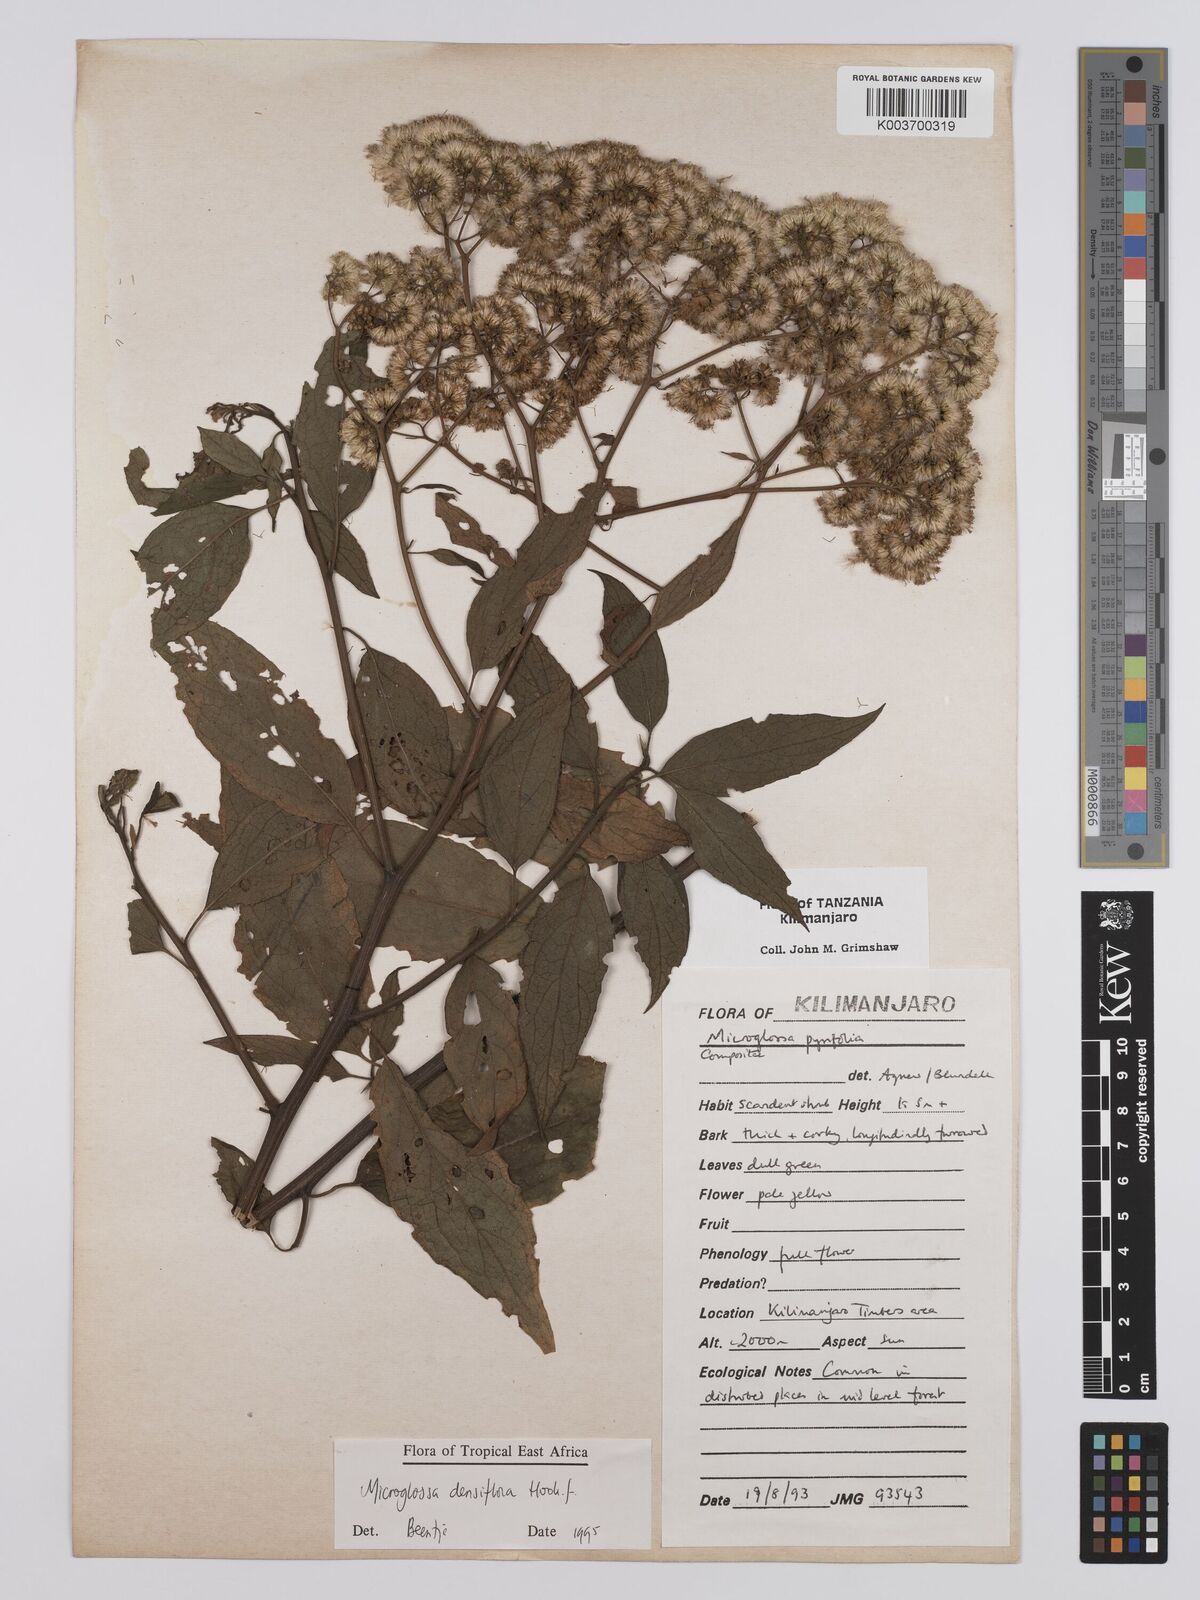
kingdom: Plantae
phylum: Tracheophyta
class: Magnoliopsida
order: Asterales
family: Asteraceae
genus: Microglossa
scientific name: Microglossa densiflora
